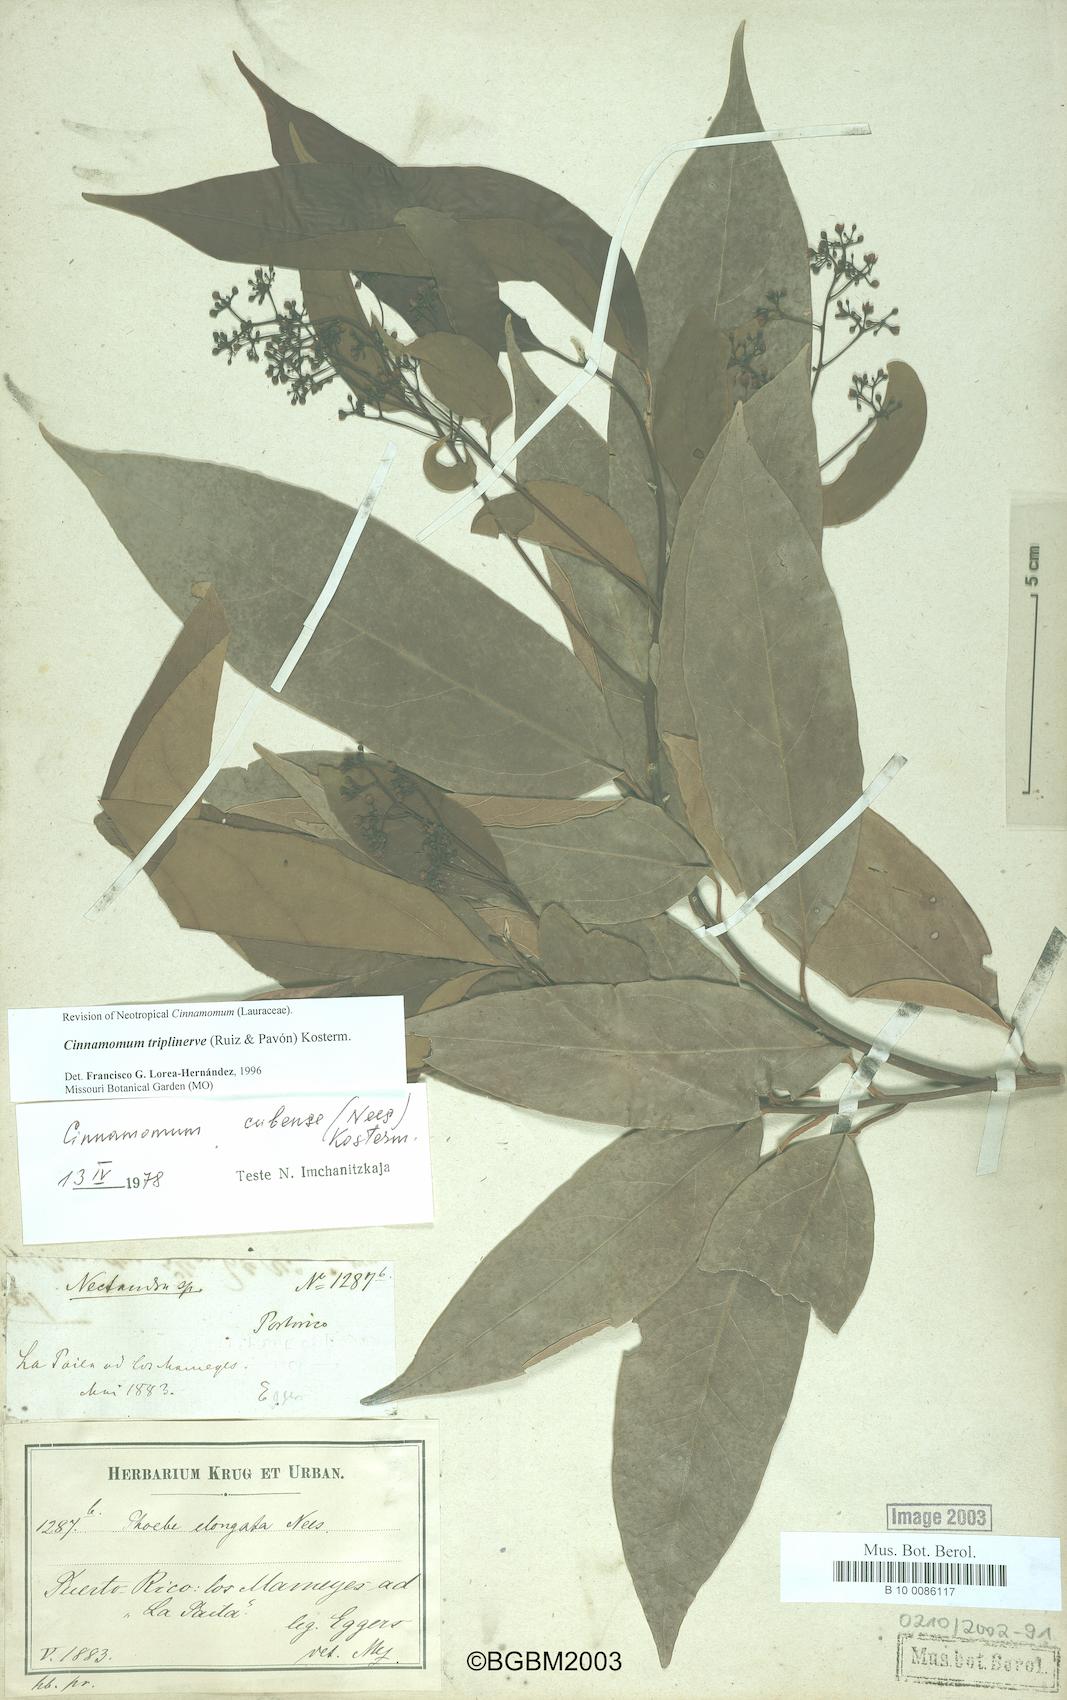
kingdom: Plantae
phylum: Tracheophyta
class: Magnoliopsida
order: Laurales
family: Lauraceae
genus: Aiouea
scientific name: Aiouea montana
